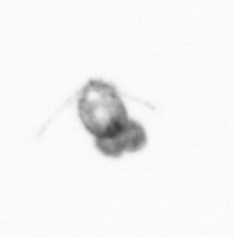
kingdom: Animalia
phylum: Arthropoda
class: Copepoda
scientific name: Copepoda
